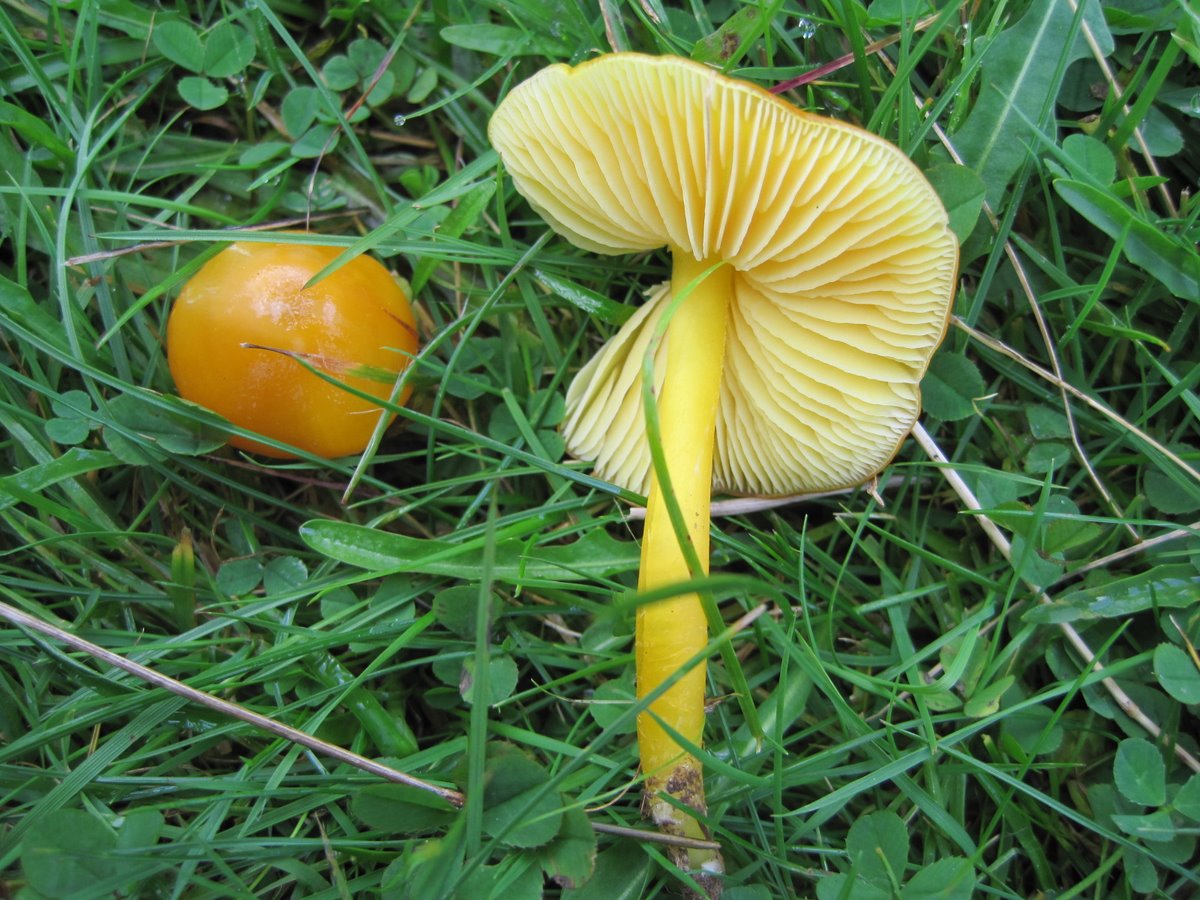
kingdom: Fungi
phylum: Basidiomycota
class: Agaricomycetes
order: Agaricales
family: Hygrophoraceae
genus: Hygrocybe
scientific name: Hygrocybe chlorophana
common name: gul vokshat
